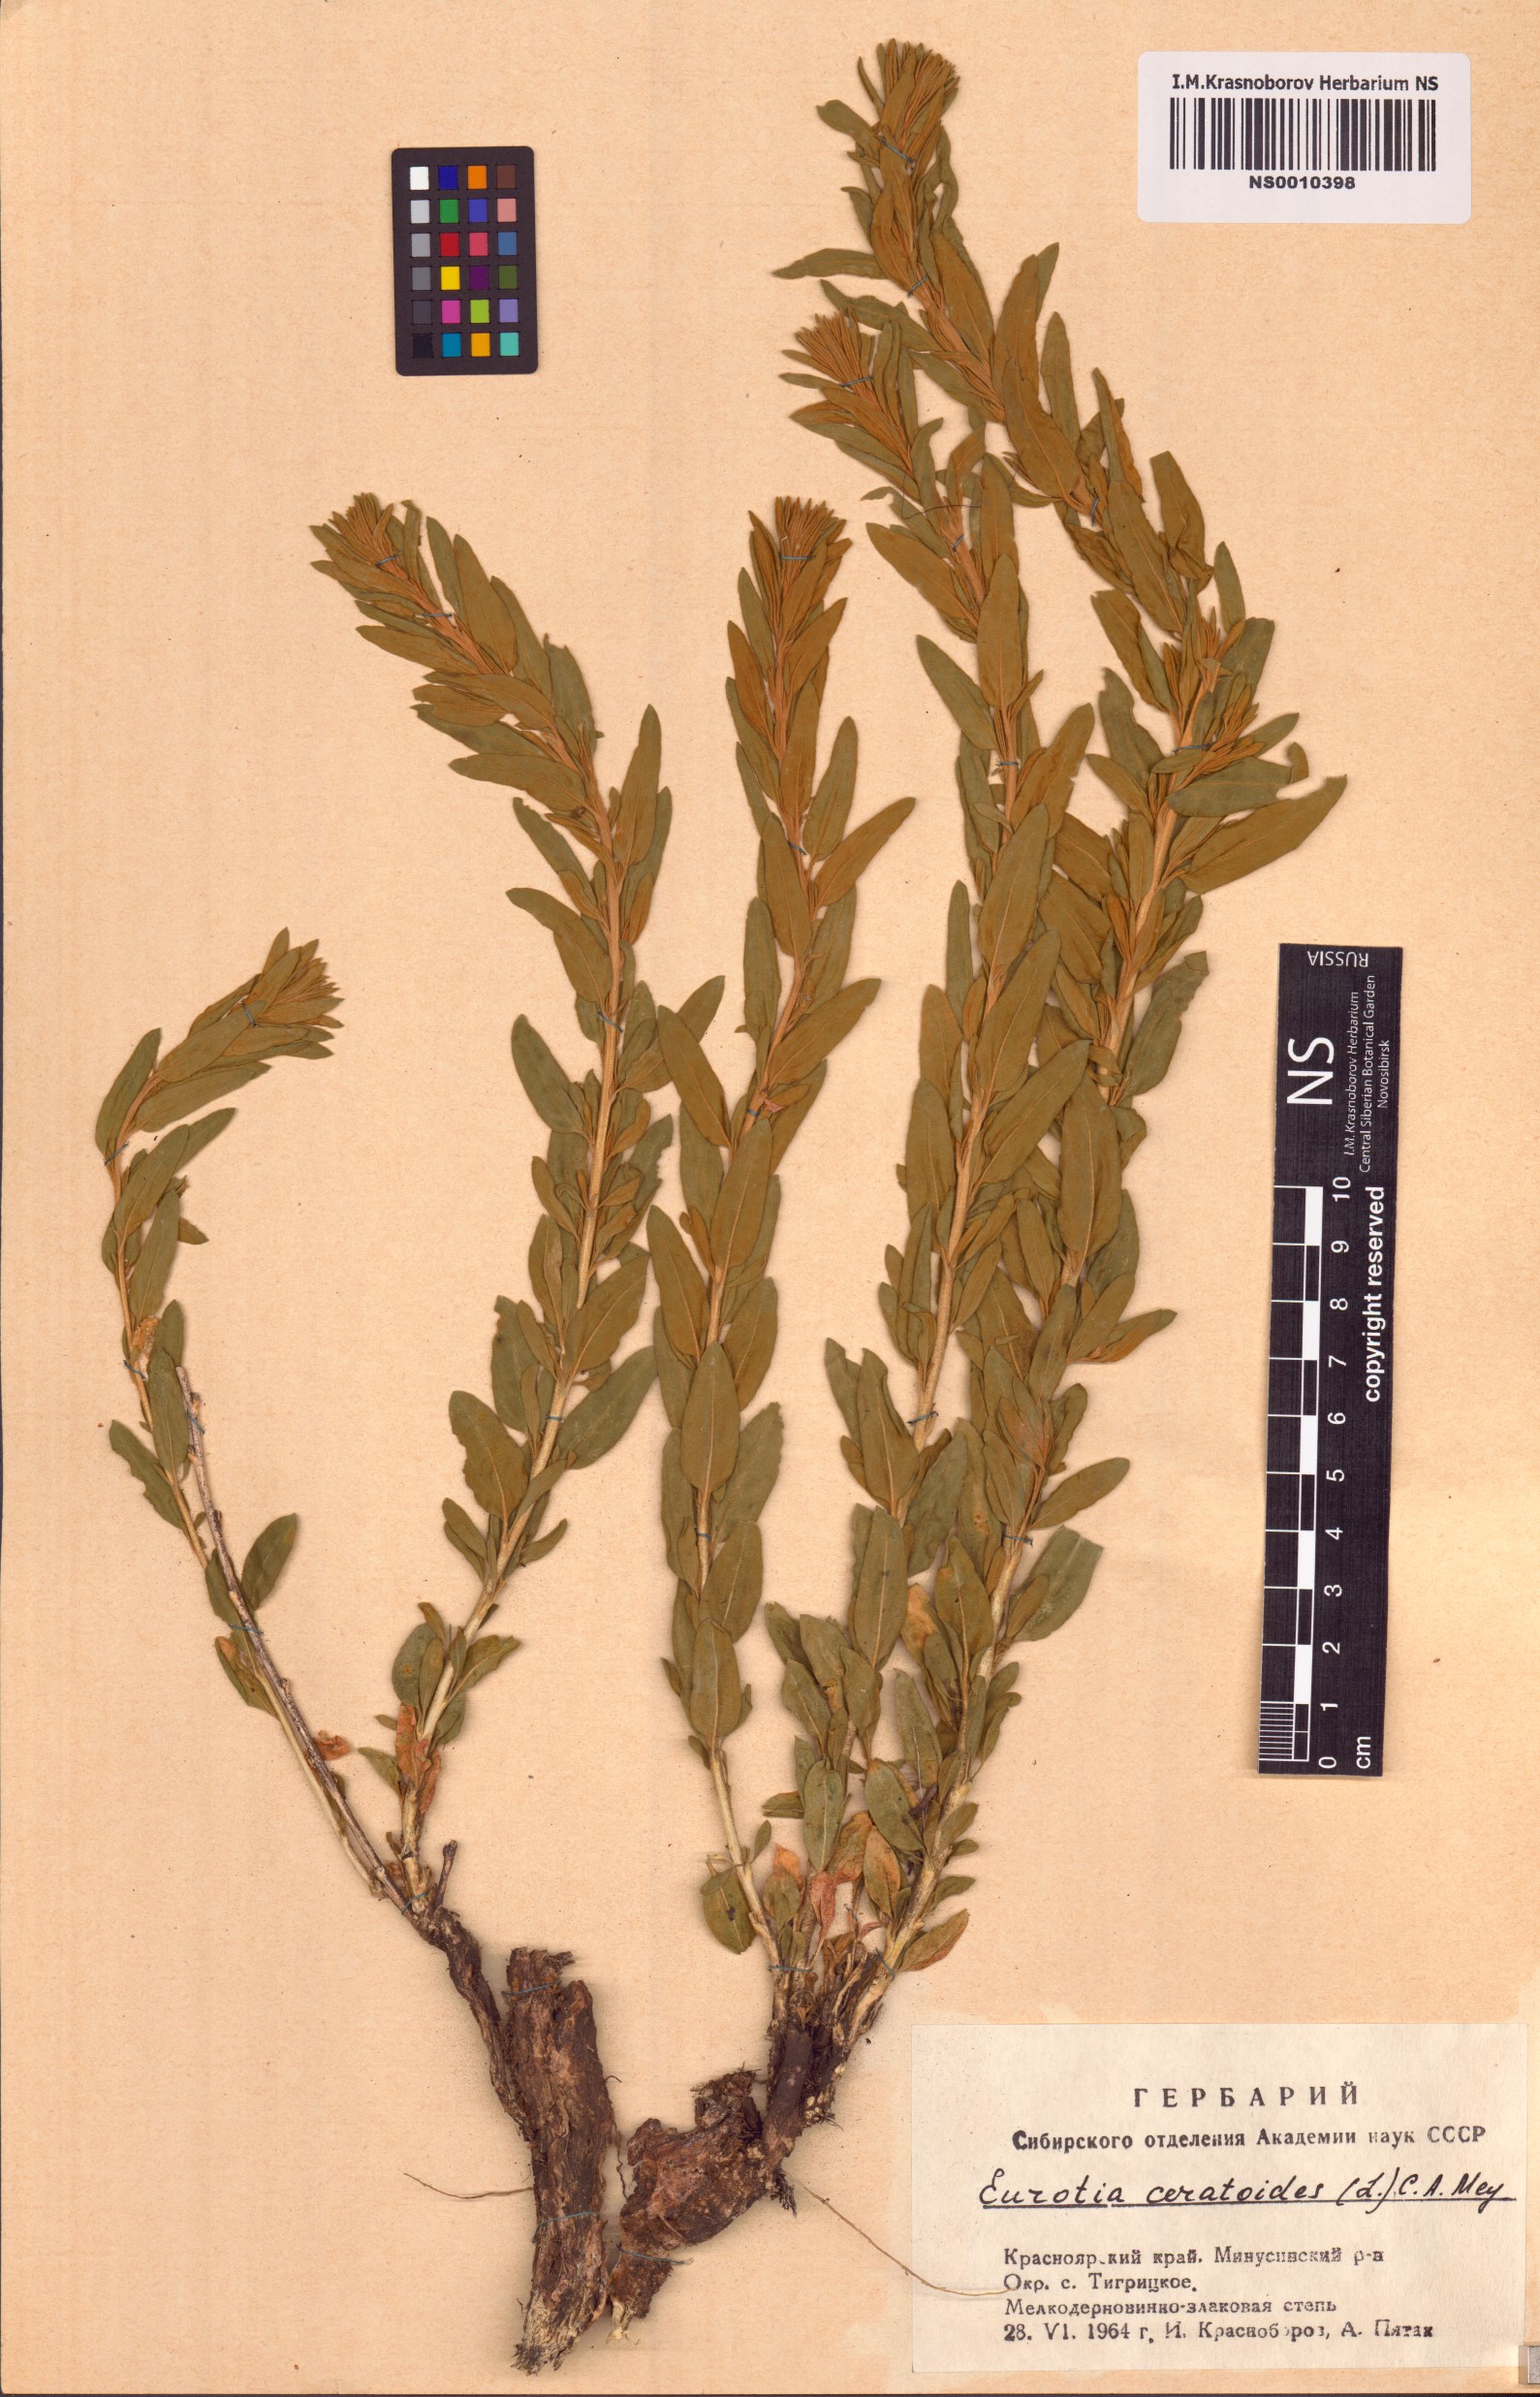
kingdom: Plantae
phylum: Tracheophyta
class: Magnoliopsida
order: Caryophyllales
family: Amaranthaceae
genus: Krascheninnikovia
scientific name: Krascheninnikovia ceratoides
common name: Pamirian winterfat
